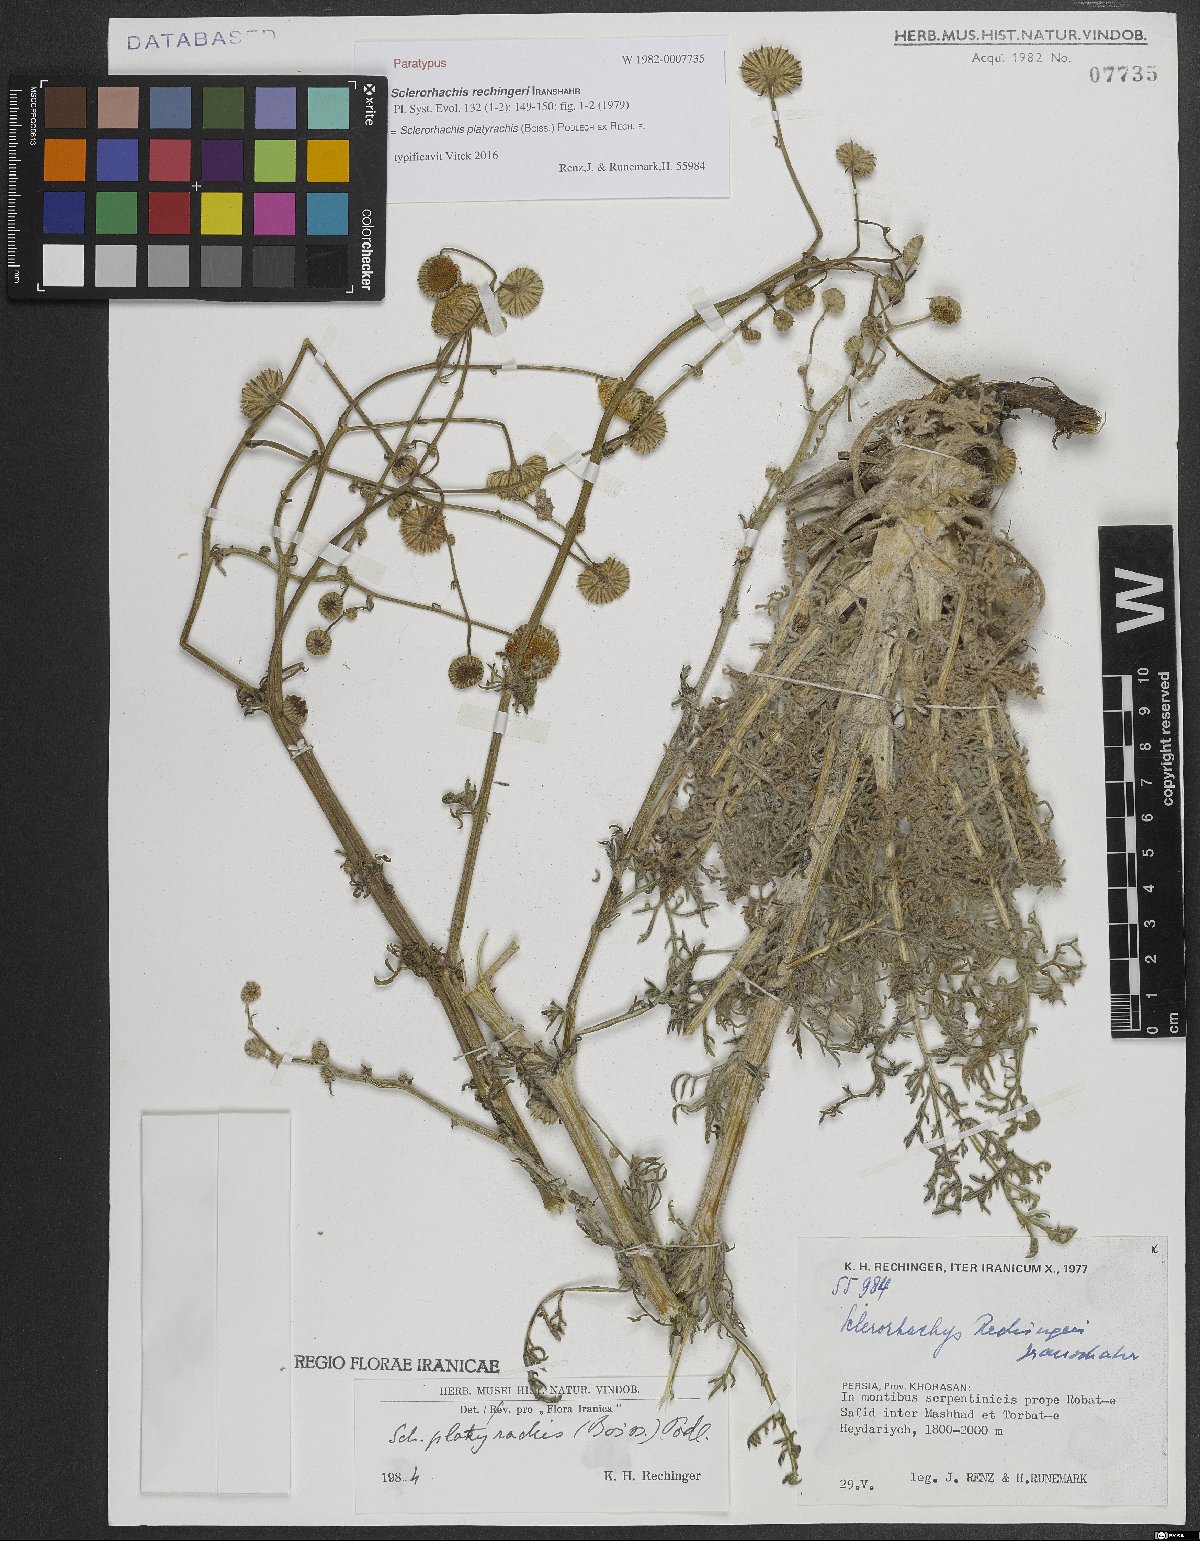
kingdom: Plantae
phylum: Tracheophyta
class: Magnoliopsida
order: Asterales
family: Asteraceae
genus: Sclerorhachis
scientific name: Sclerorhachis platyrachis
